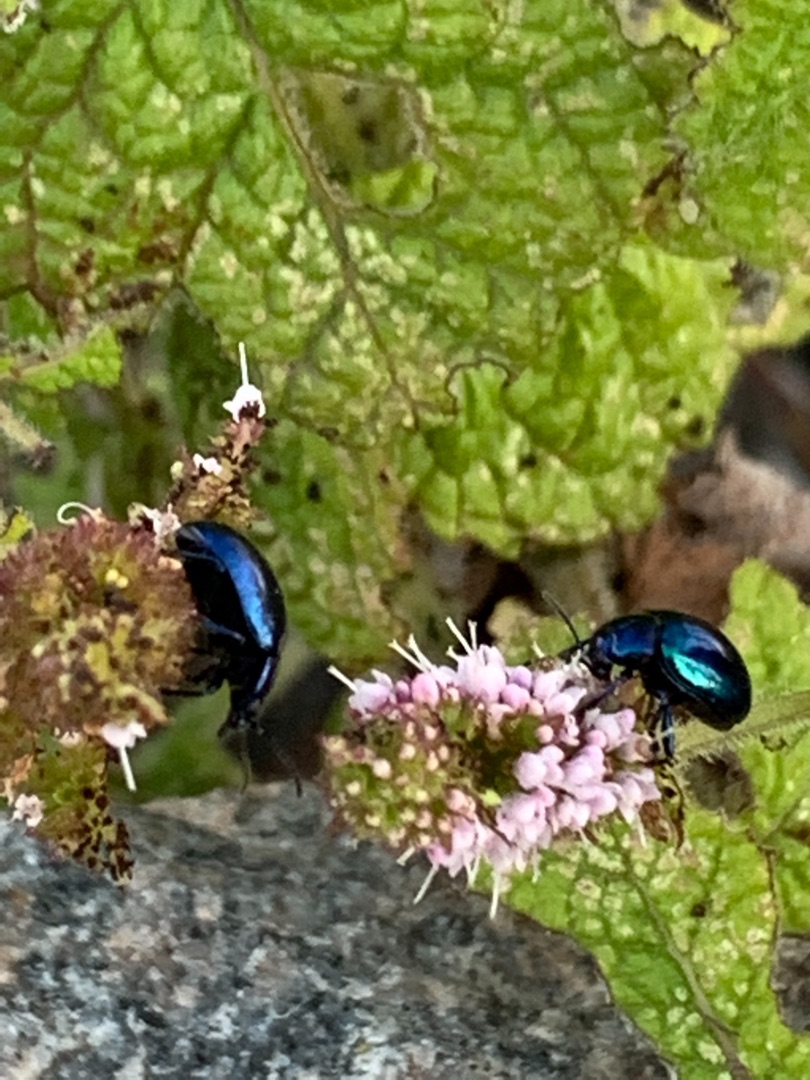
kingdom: Animalia
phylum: Arthropoda
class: Insecta
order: Coleoptera
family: Chrysomelidae
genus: Chrysolina
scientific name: Chrysolina coerulans
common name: Blå mynteguldbille
